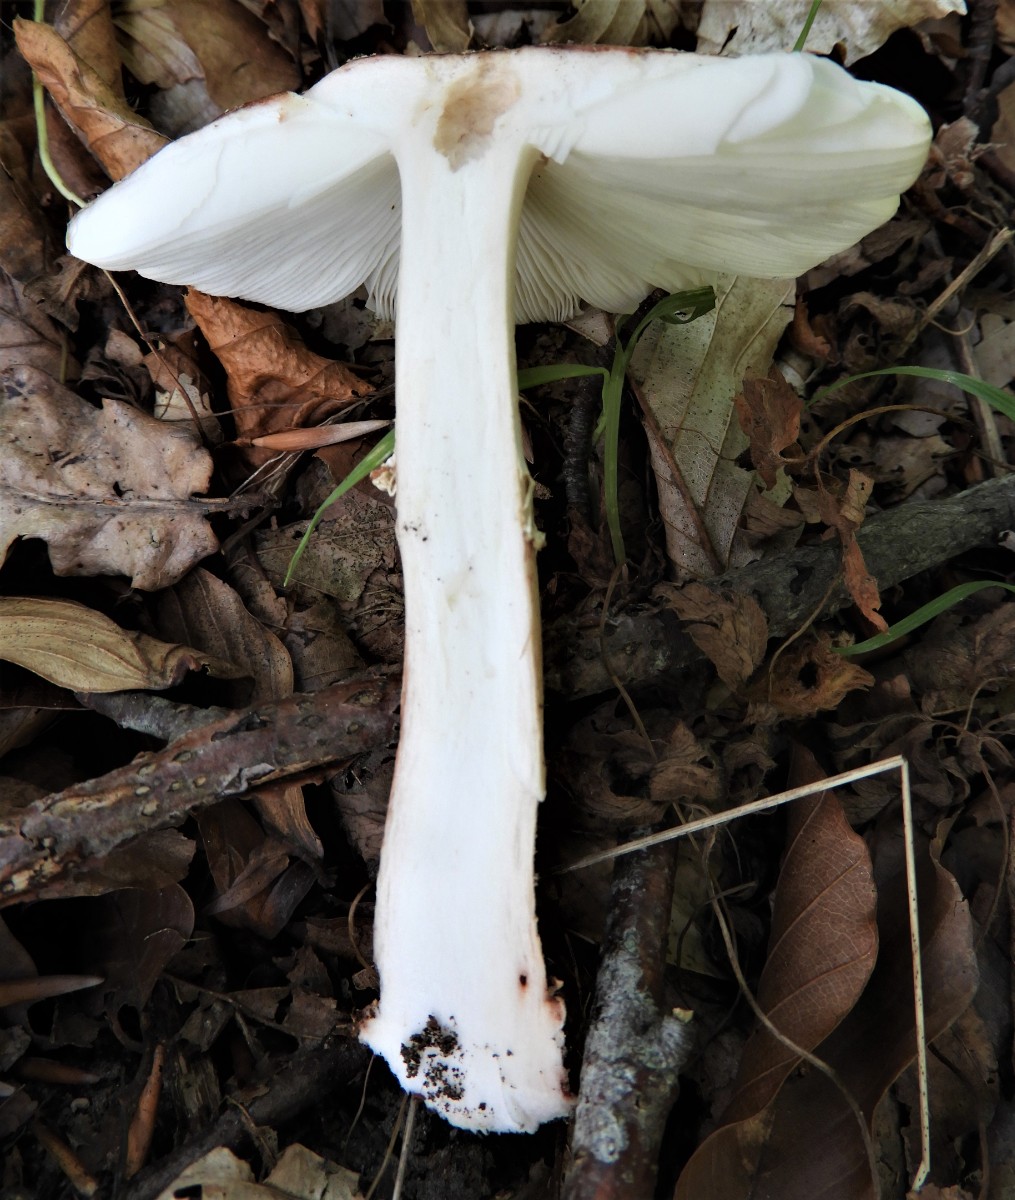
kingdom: Fungi
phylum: Basidiomycota
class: Agaricomycetes
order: Agaricales
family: Amanitaceae
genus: Amanita
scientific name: Amanita rubescens
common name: rødmende fluesvamp
